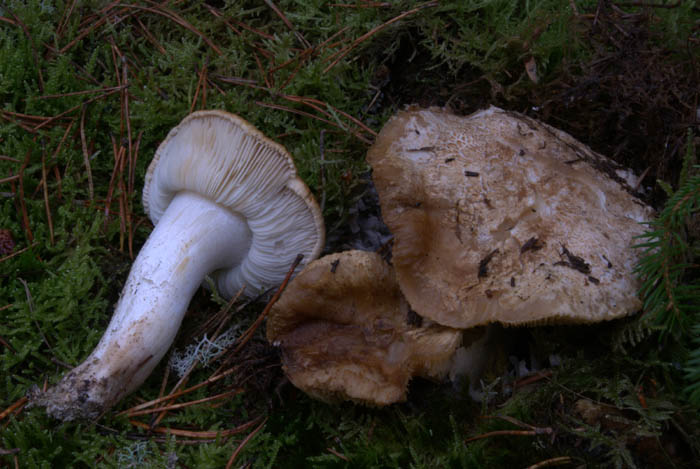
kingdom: Fungi
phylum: Basidiomycota
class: Agaricomycetes
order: Agaricales
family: Tricholomataceae
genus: Tricholoma
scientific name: Tricholoma apium
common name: suppe-ridderhat
